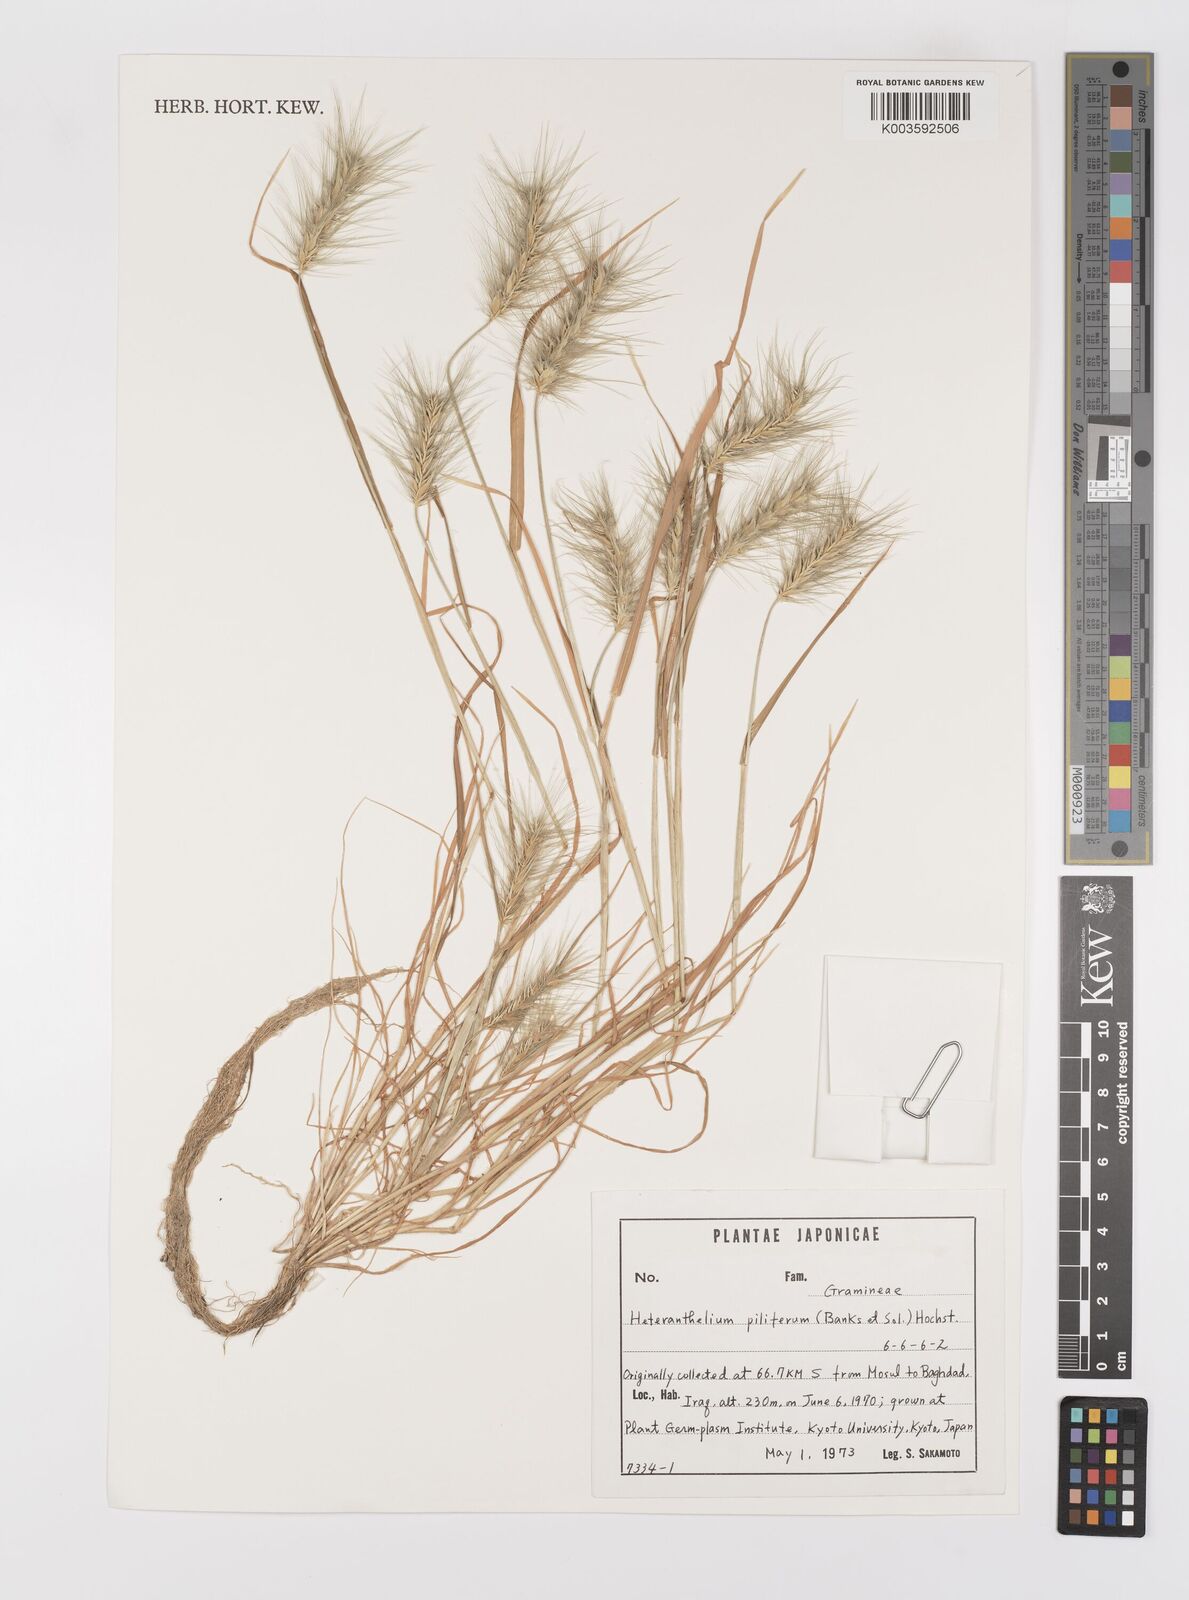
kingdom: Plantae
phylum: Tracheophyta
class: Liliopsida
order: Poales
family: Poaceae
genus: Heteranthelium
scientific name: Heteranthelium piliferum
